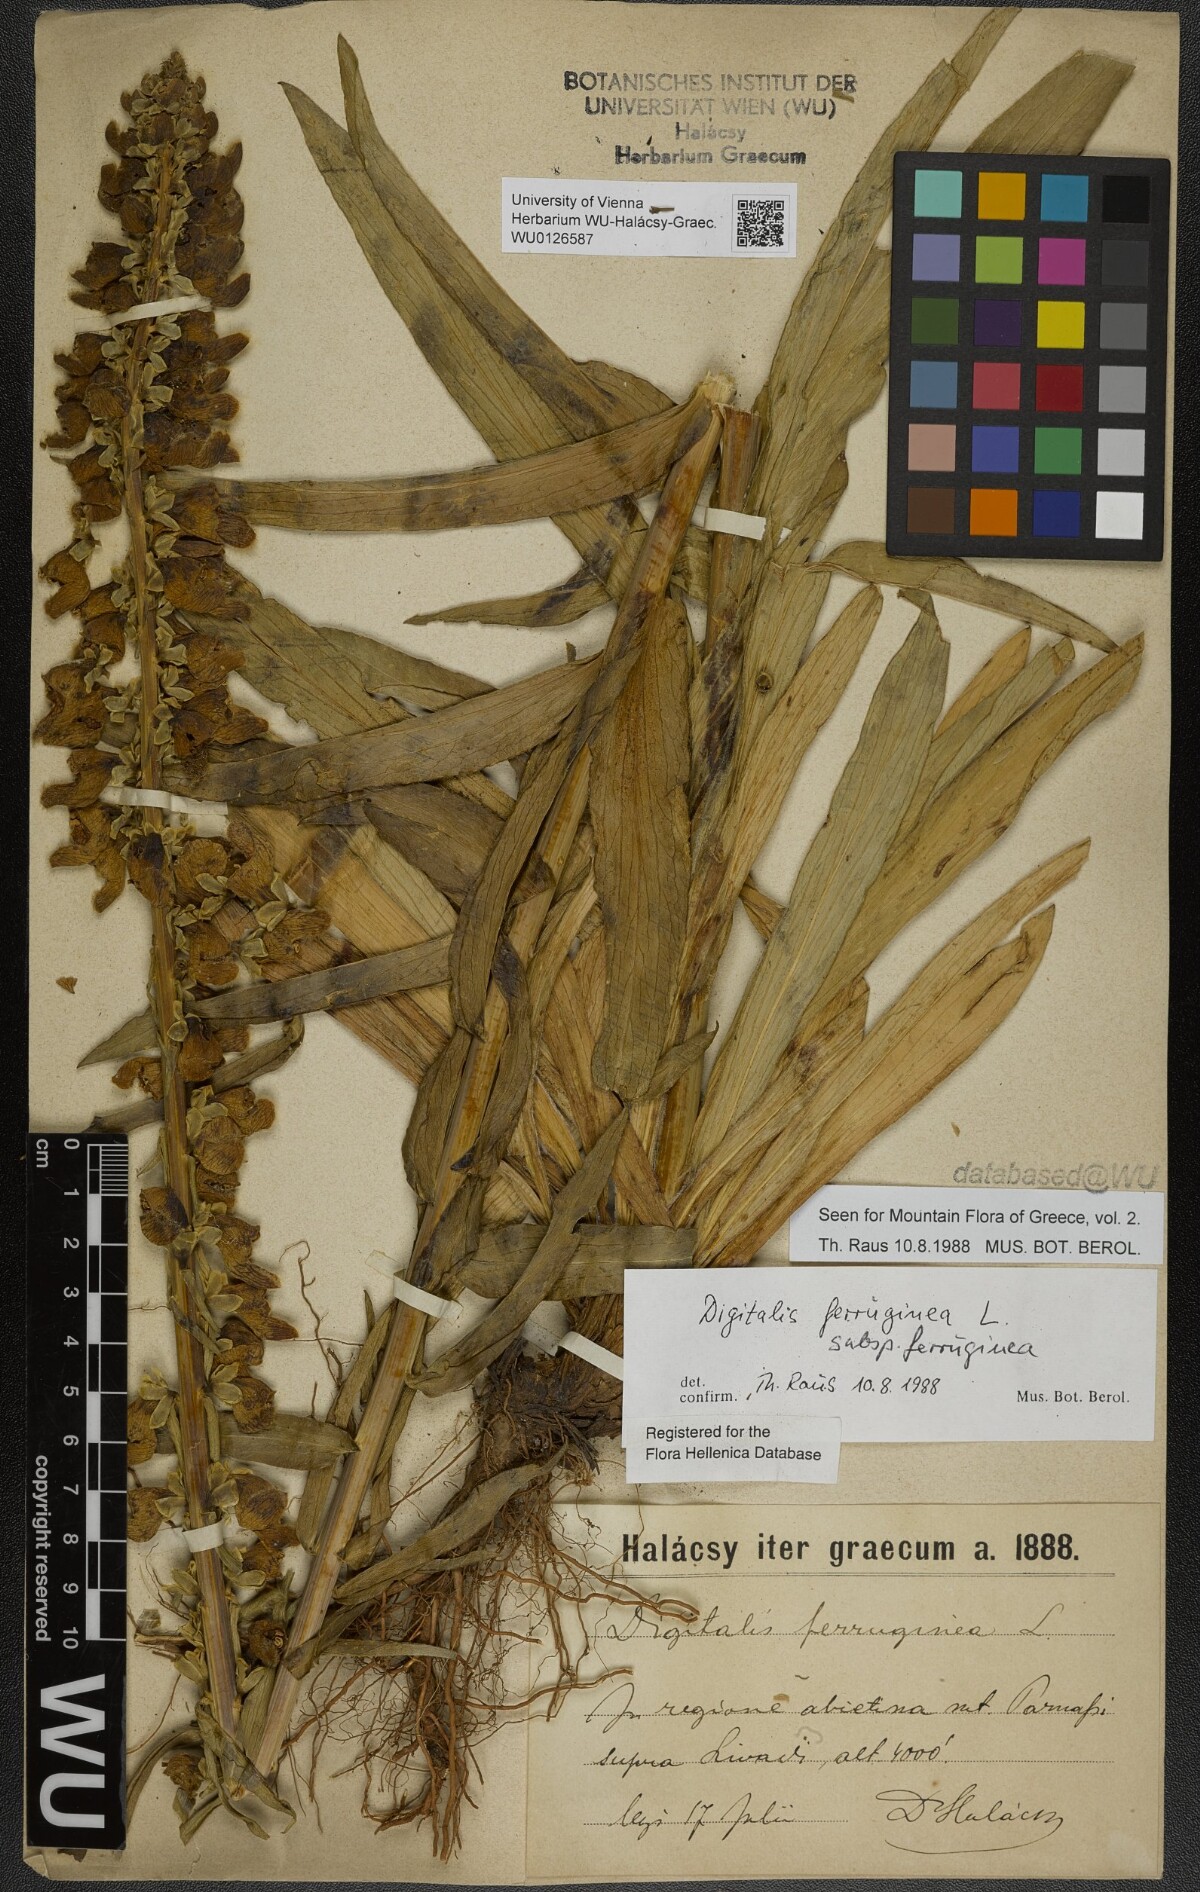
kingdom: Plantae
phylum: Tracheophyta
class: Magnoliopsida
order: Lamiales
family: Plantaginaceae
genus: Digitalis
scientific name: Digitalis ferruginea
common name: Rusty foxglove
